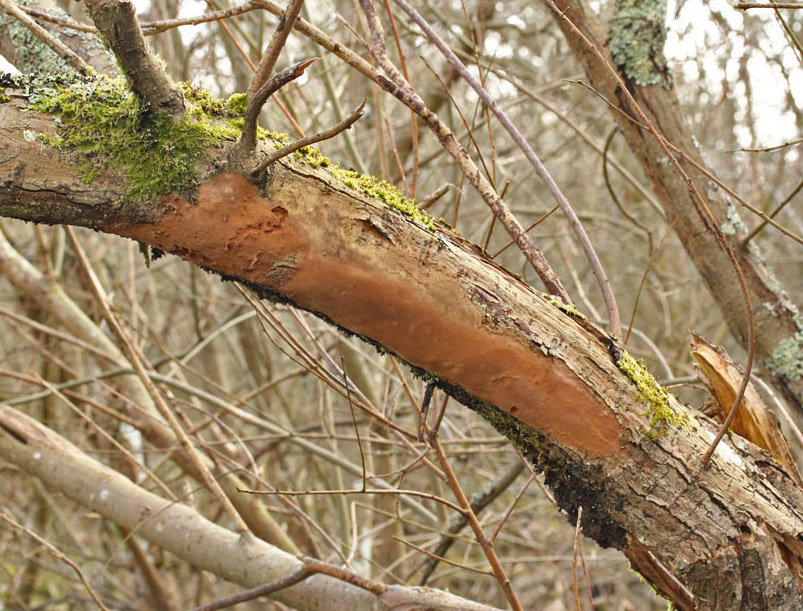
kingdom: Fungi
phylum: Basidiomycota
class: Agaricomycetes
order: Hymenochaetales
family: Hymenochaetaceae
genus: Fomitiporia
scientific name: Fomitiporia punctata
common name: pude-ildporesvamp
